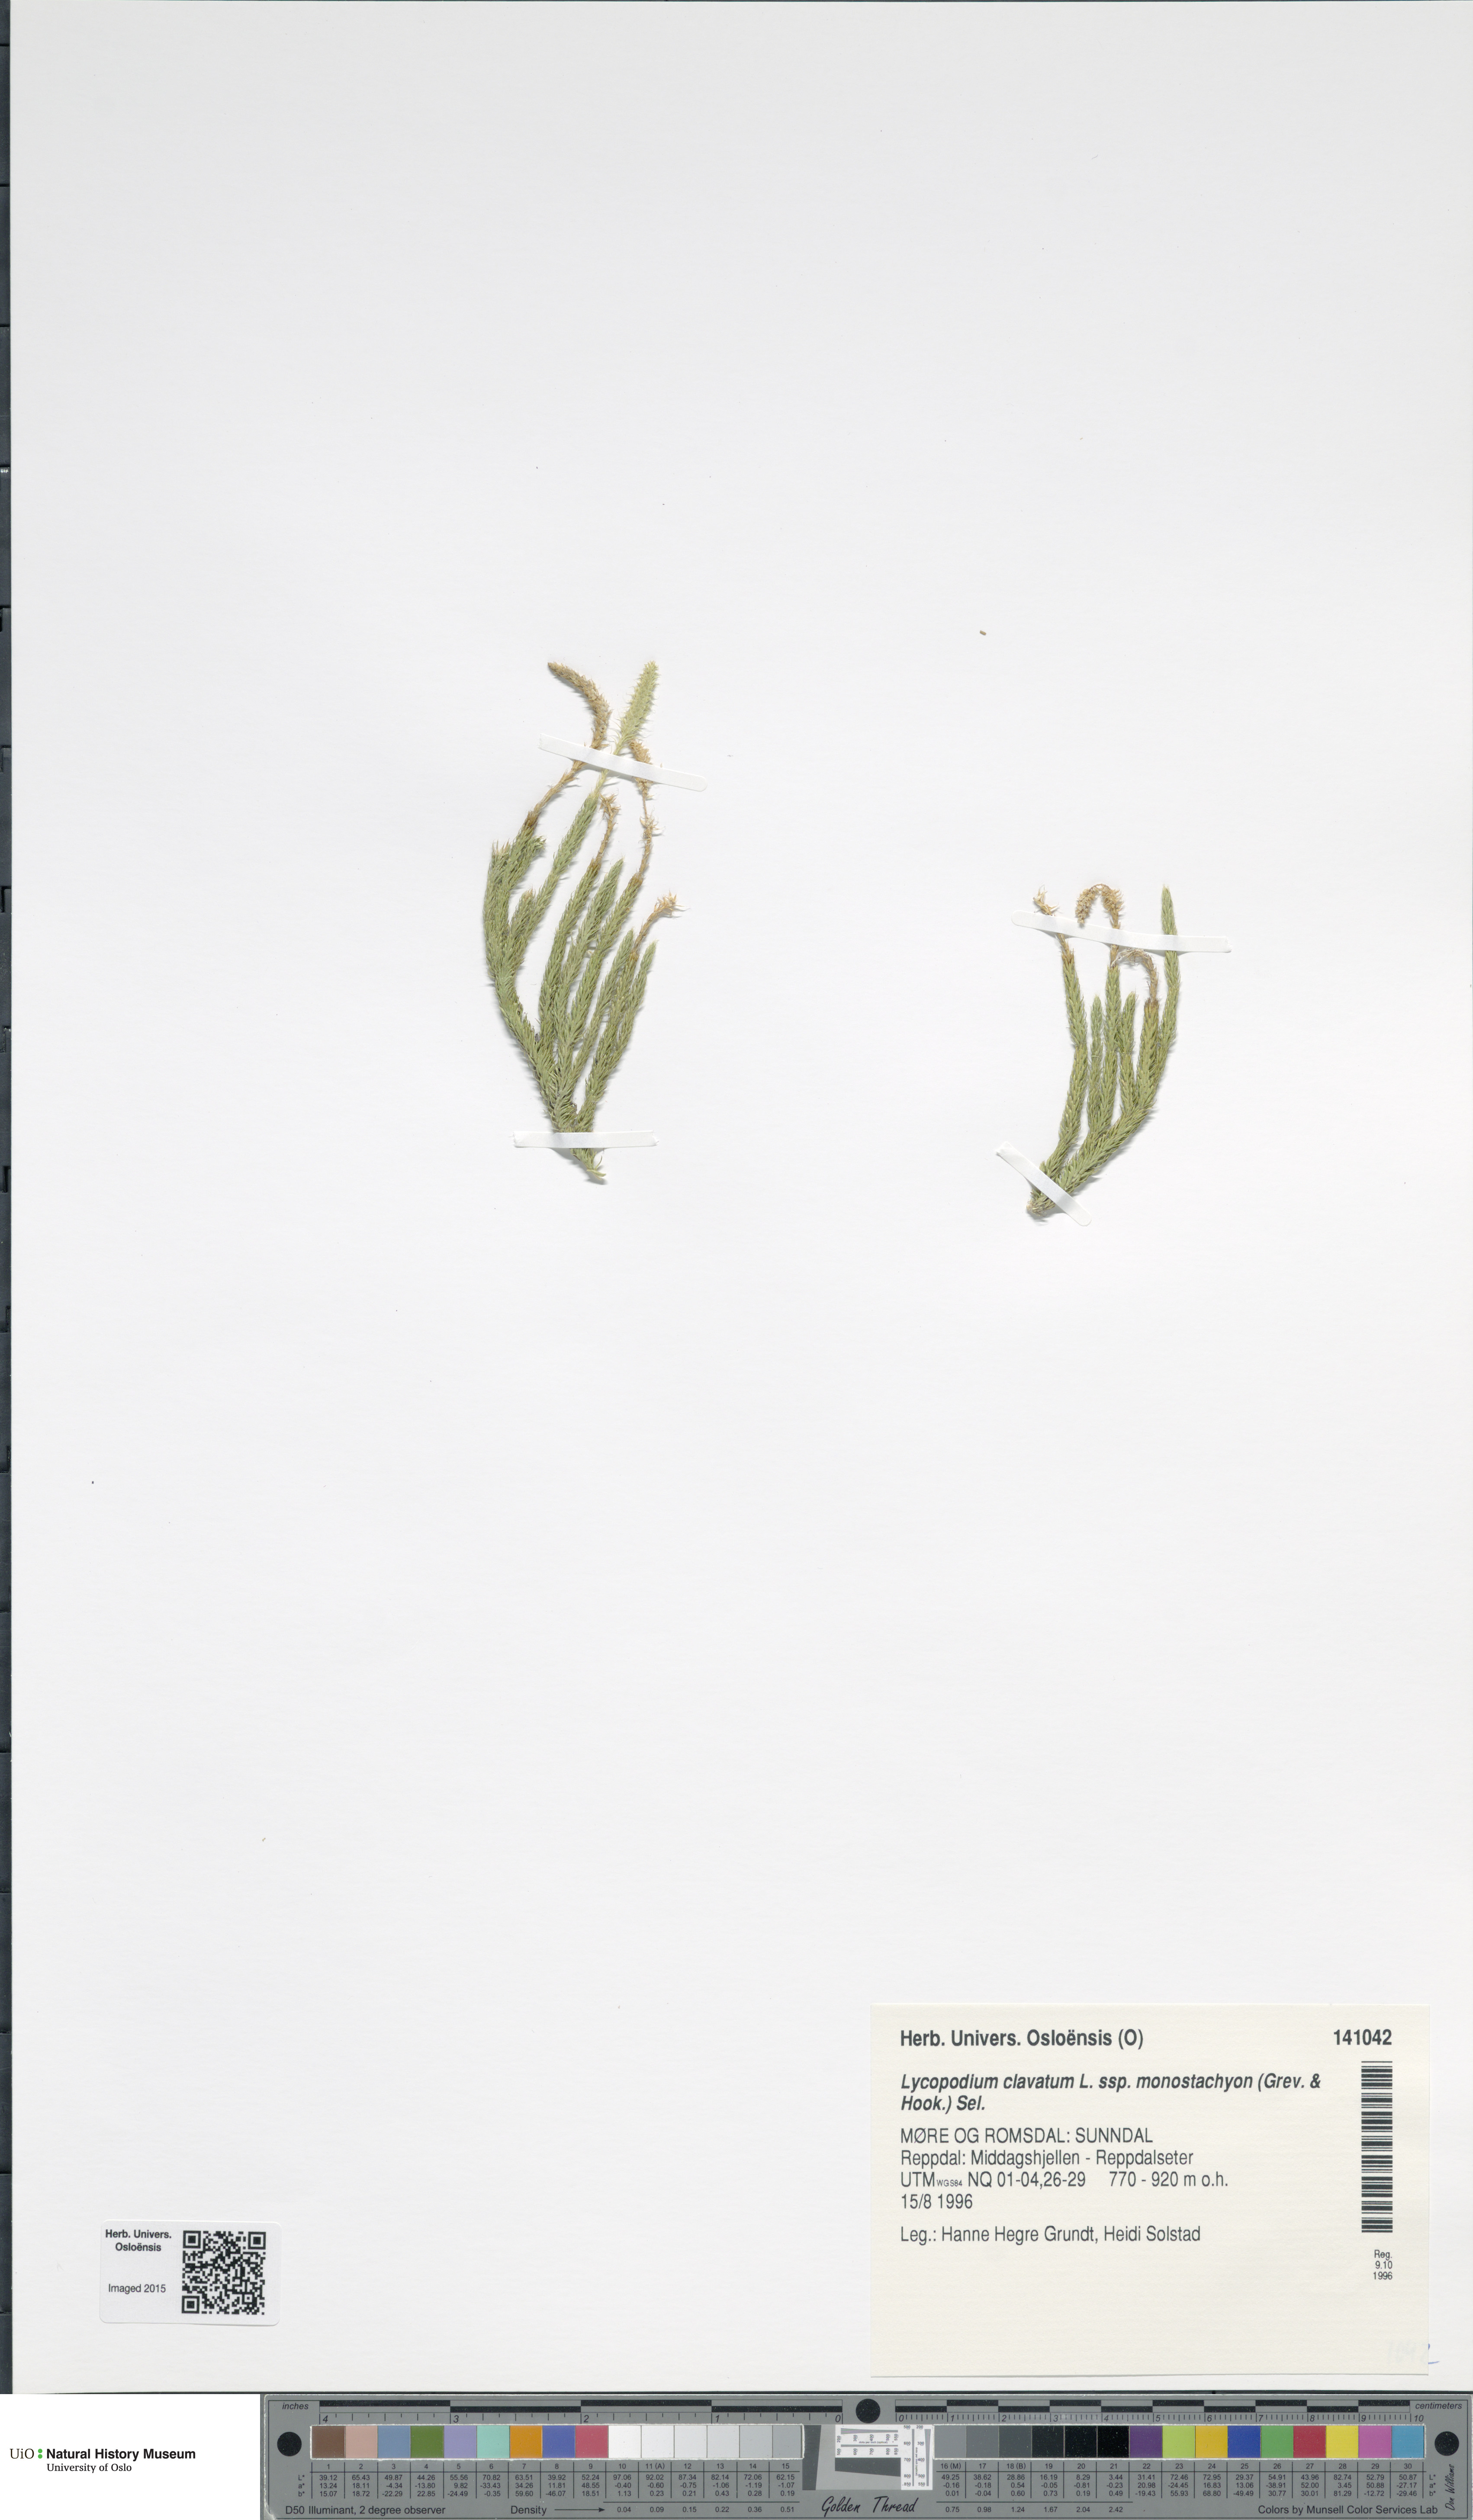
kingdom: Plantae
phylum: Tracheophyta
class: Lycopodiopsida
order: Lycopodiales
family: Lycopodiaceae
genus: Lycopodium
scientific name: Lycopodium lagopus
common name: One-cone clubmoss
